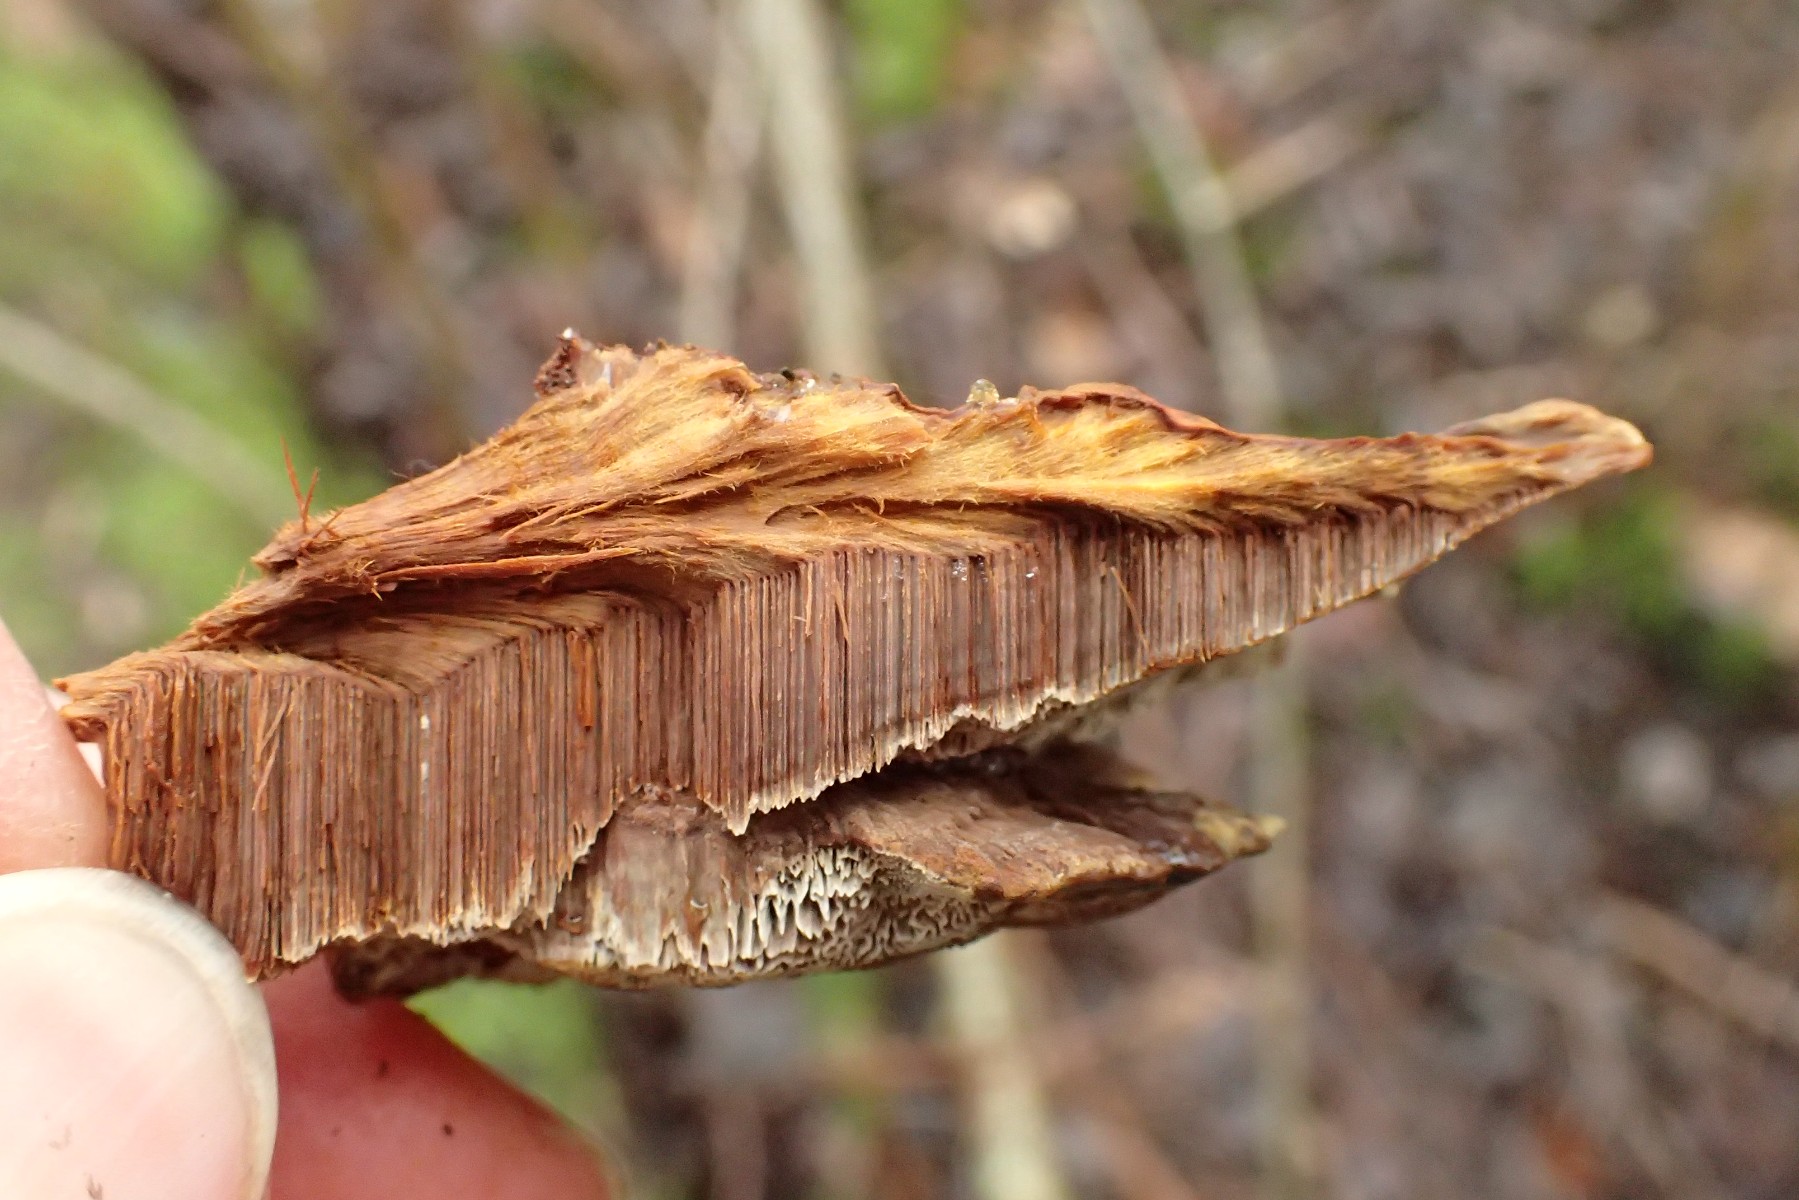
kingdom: Fungi
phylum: Basidiomycota
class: Agaricomycetes
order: Hymenochaetales
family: Hymenochaetaceae
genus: Xanthoporia
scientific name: Xanthoporia radiata
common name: elle-spejlporesvamp
